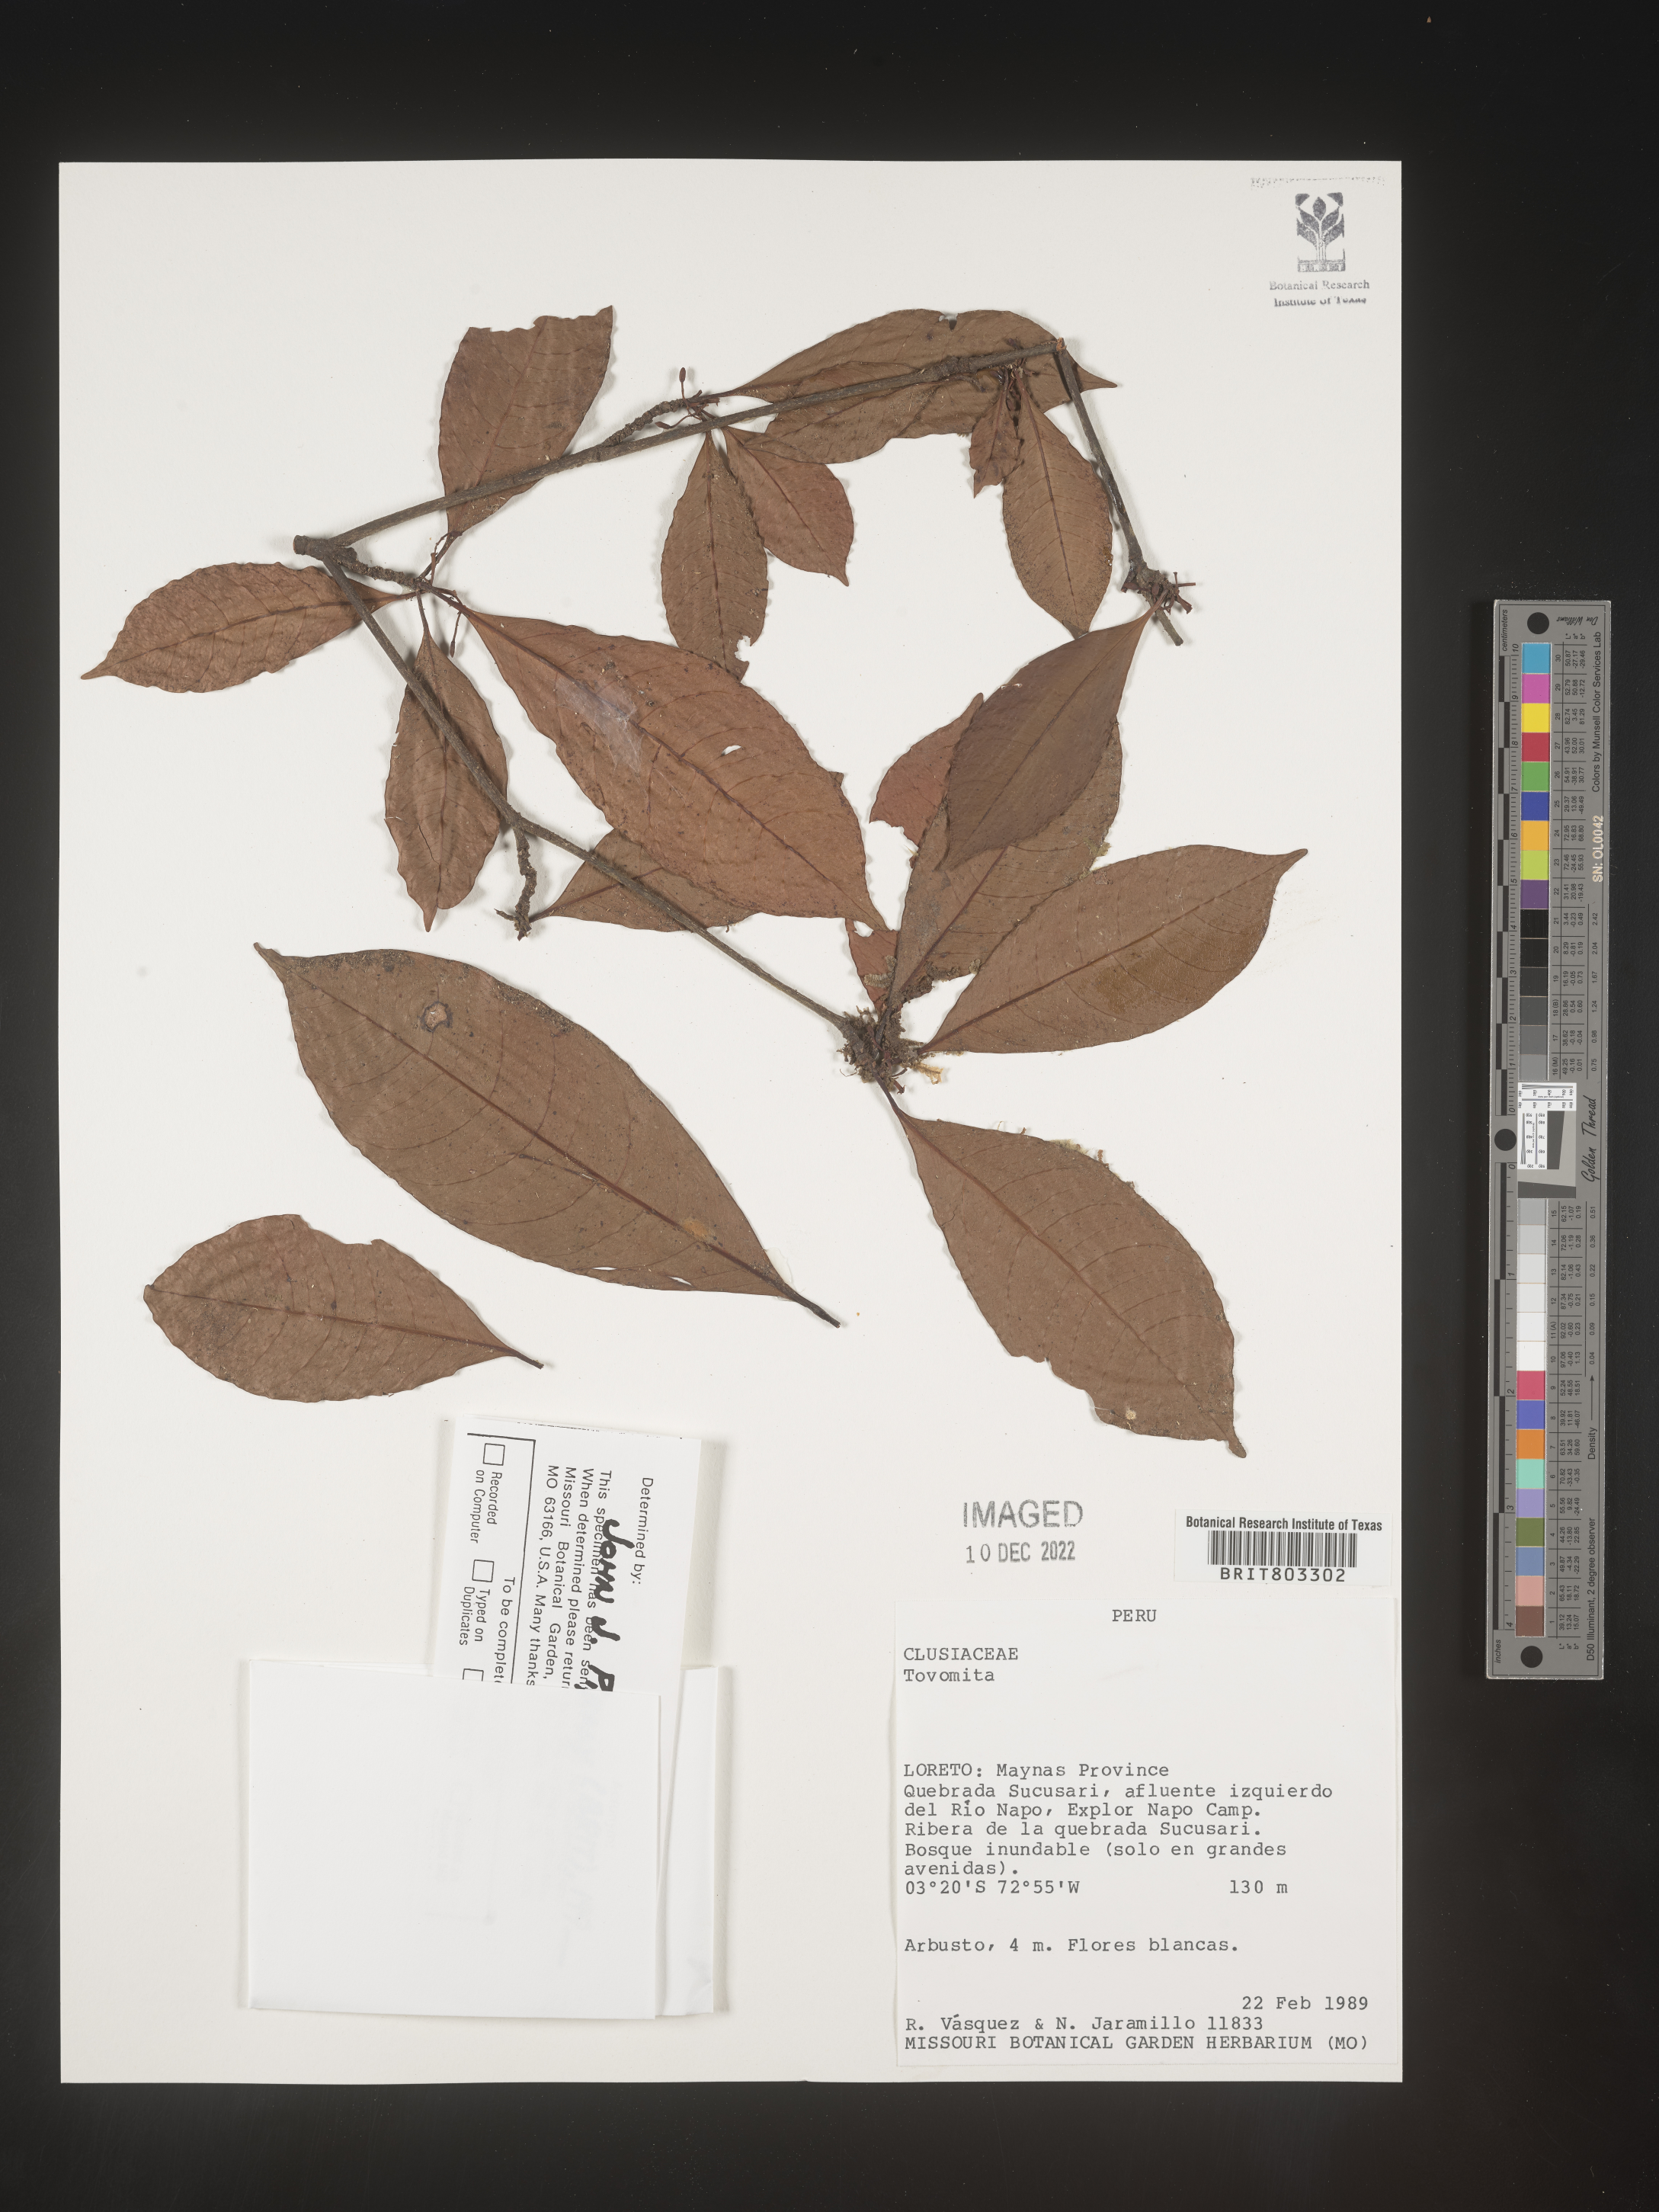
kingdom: Plantae
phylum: Tracheophyta
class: Magnoliopsida
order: Malpighiales
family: Clusiaceae
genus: Tovomita
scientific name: Tovomita
